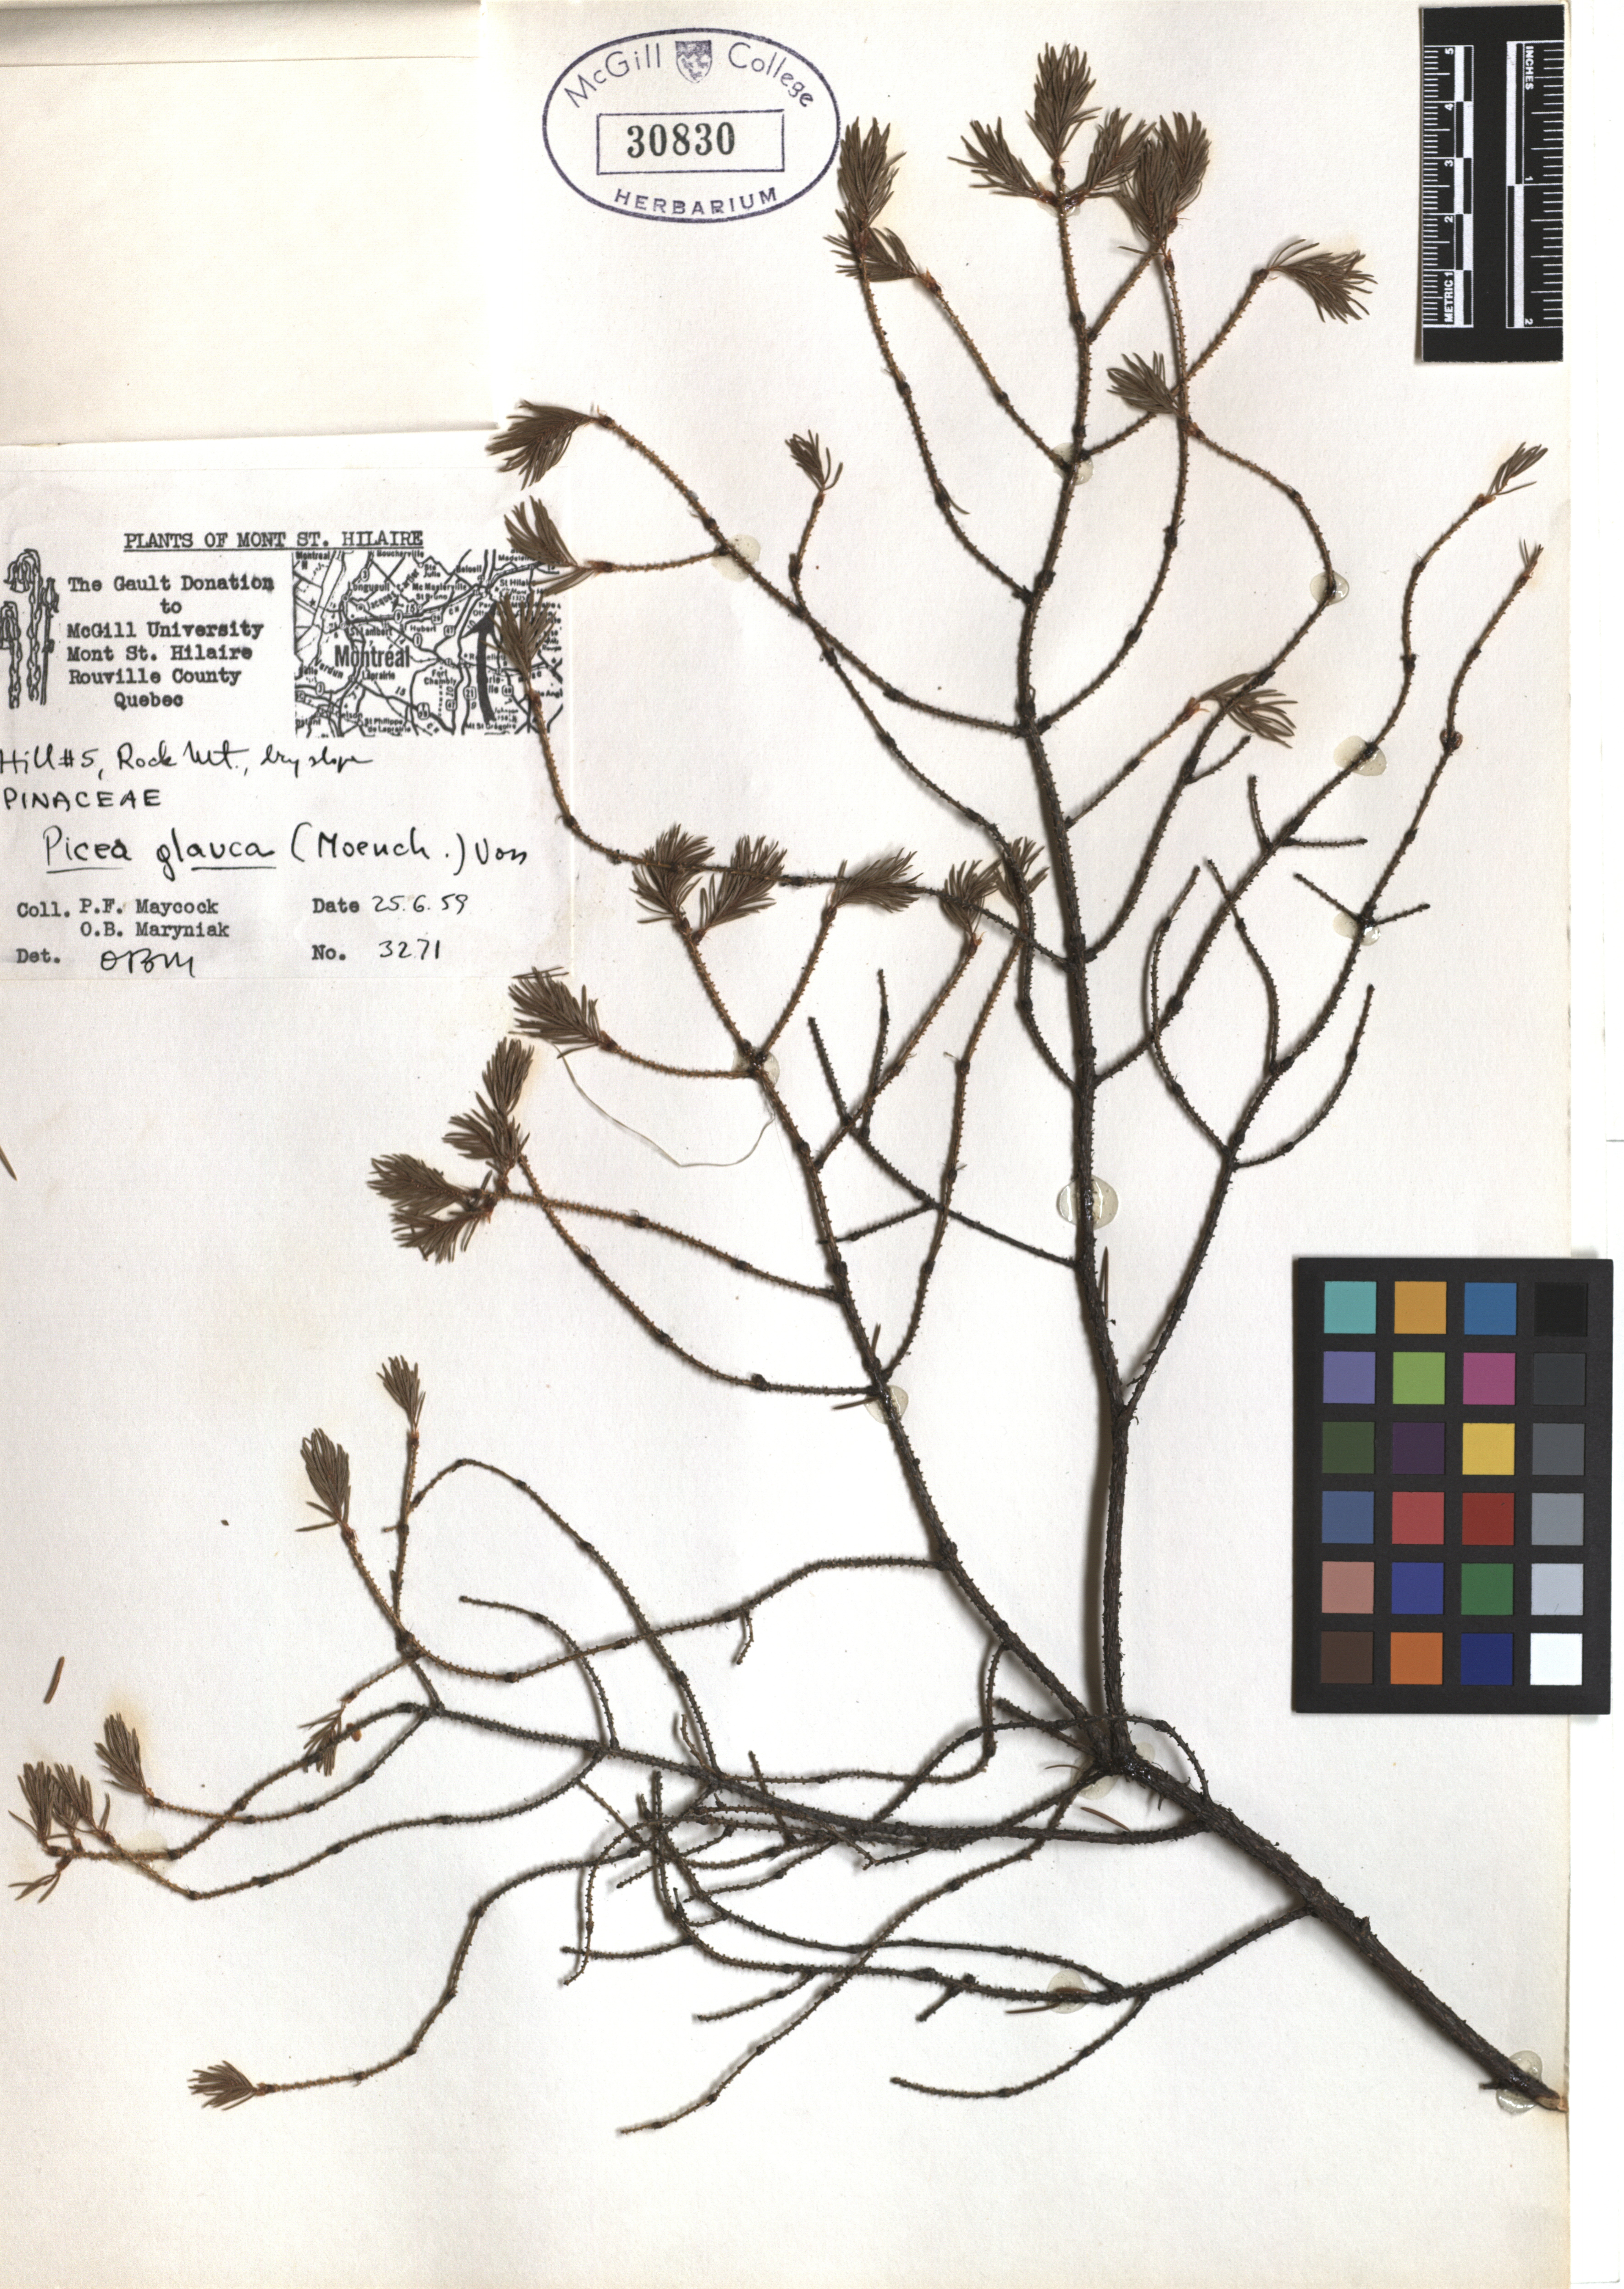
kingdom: Plantae
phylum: Tracheophyta
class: Pinopsida
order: Pinales
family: Pinaceae
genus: Picea
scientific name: Picea glauca
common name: White spruce
